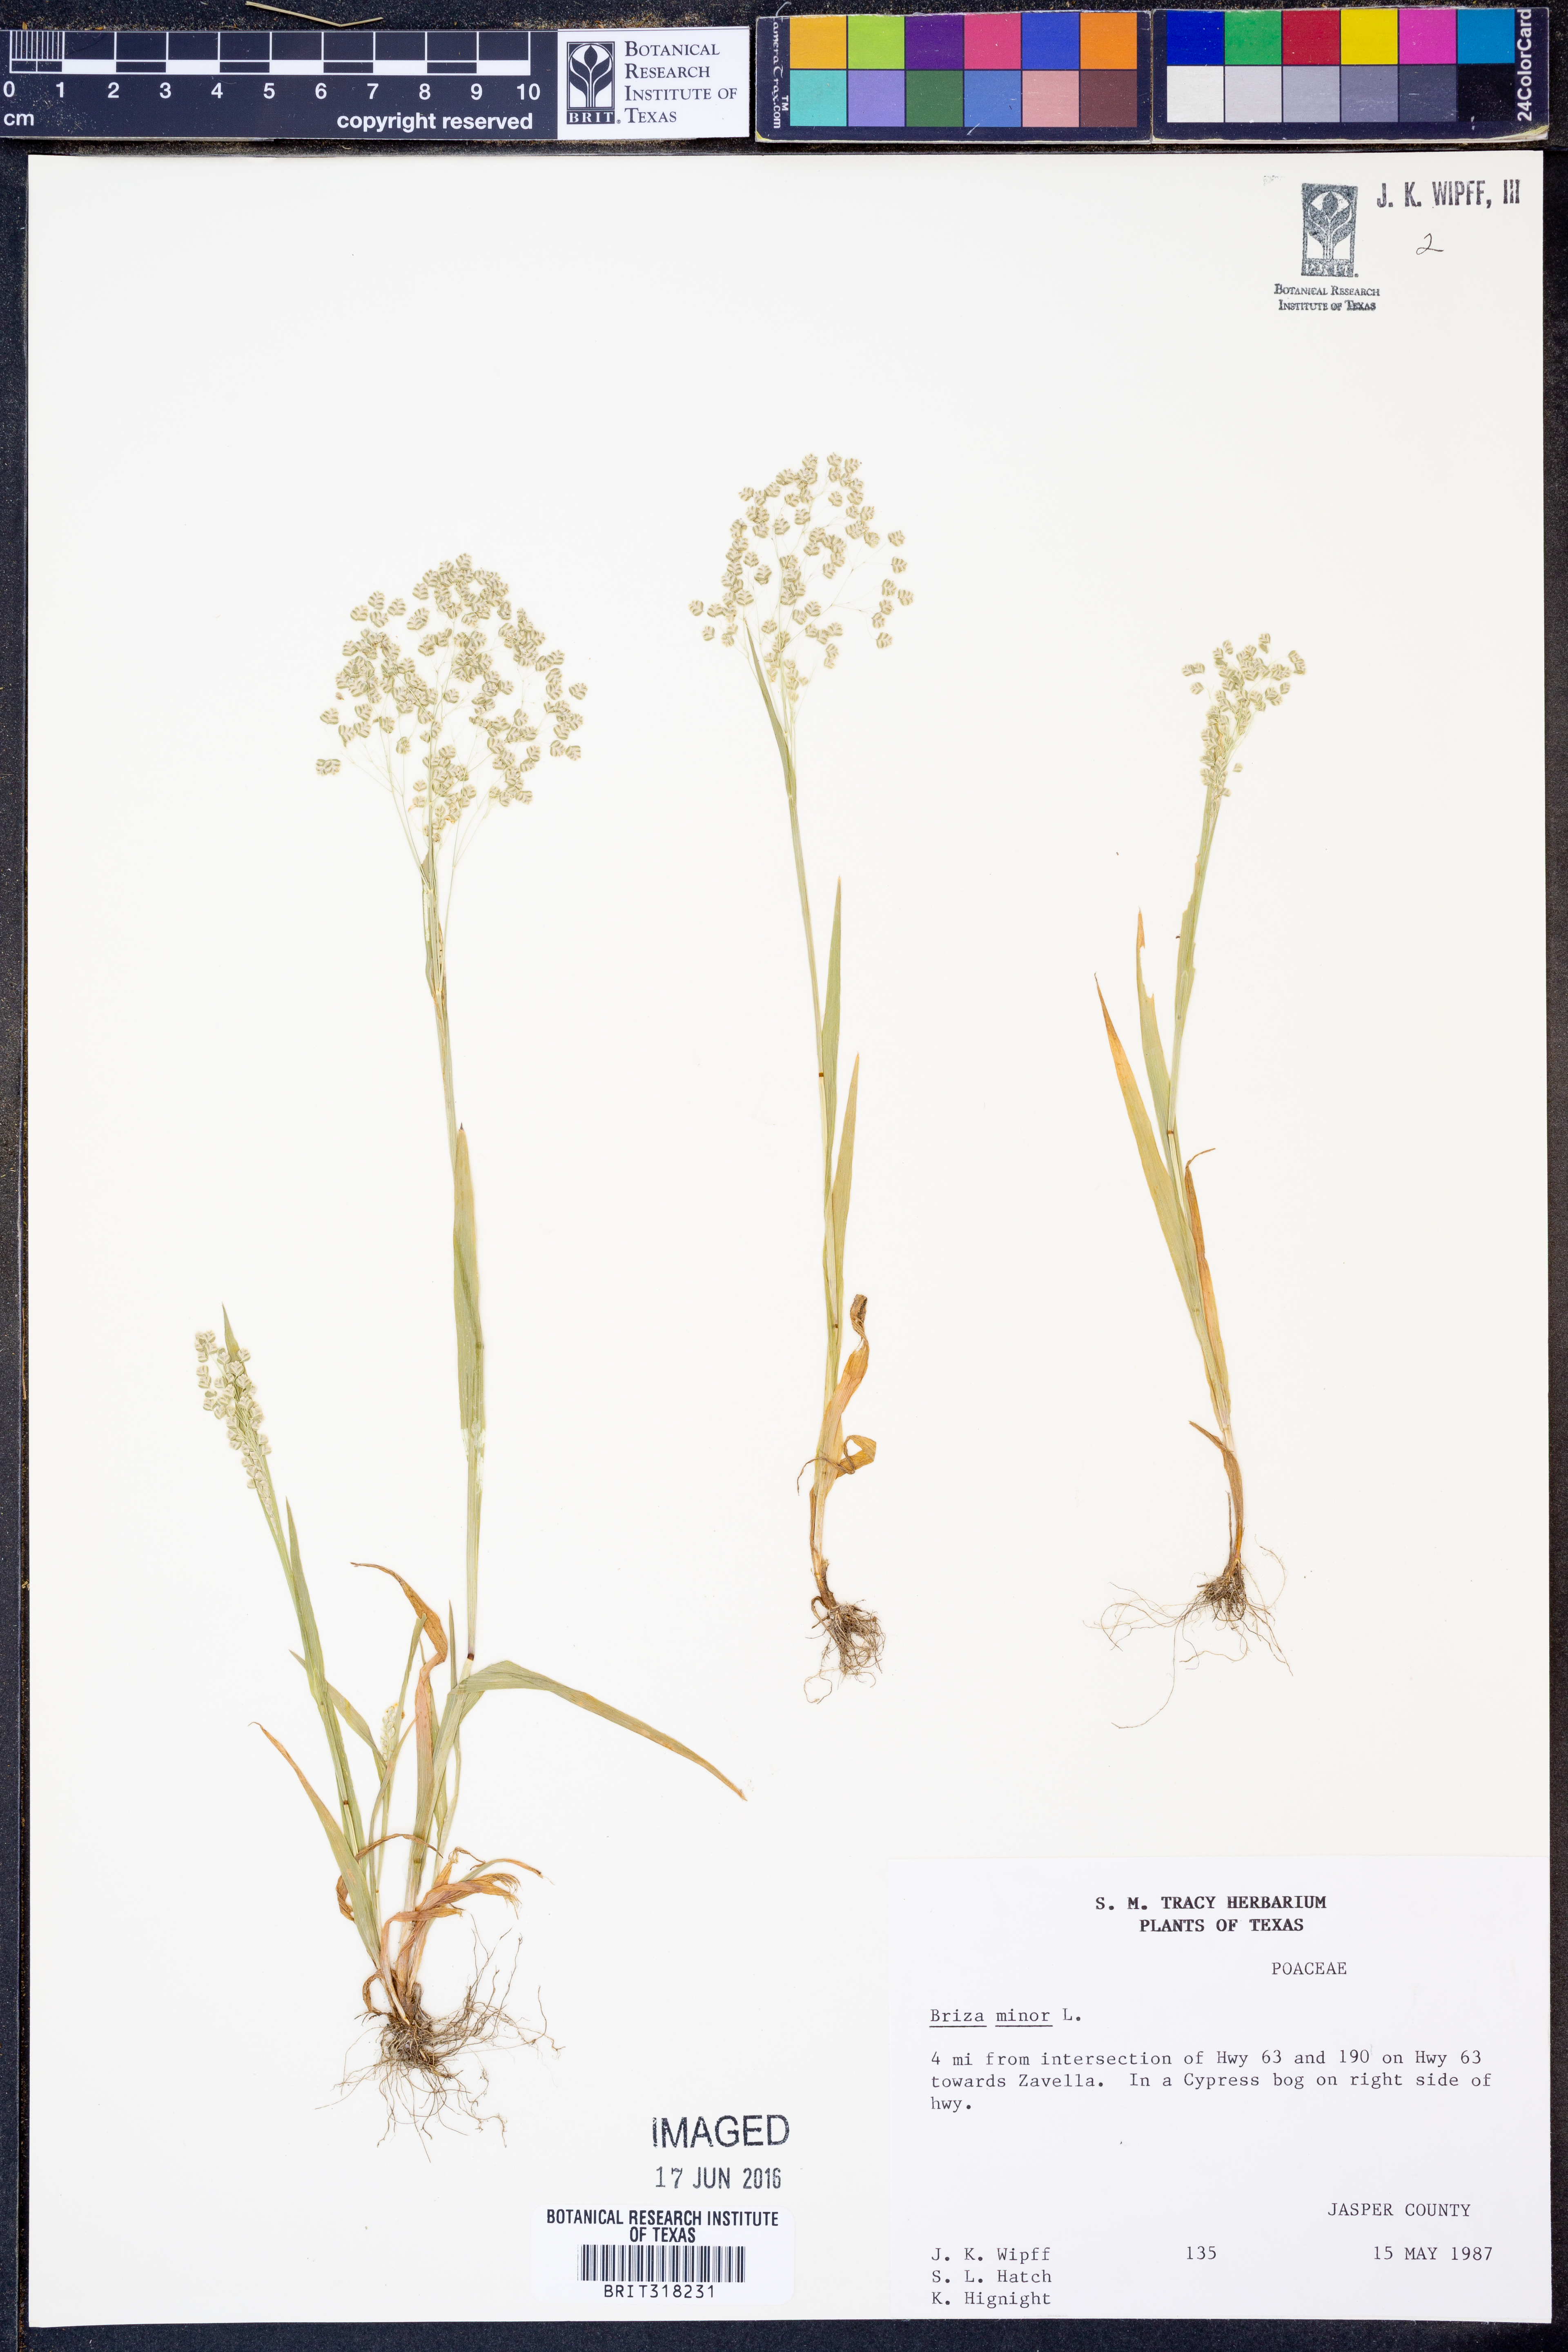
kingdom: Plantae
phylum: Tracheophyta
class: Liliopsida
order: Poales
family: Poaceae
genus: Briza
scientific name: Briza minor
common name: Lesser quaking-grass
